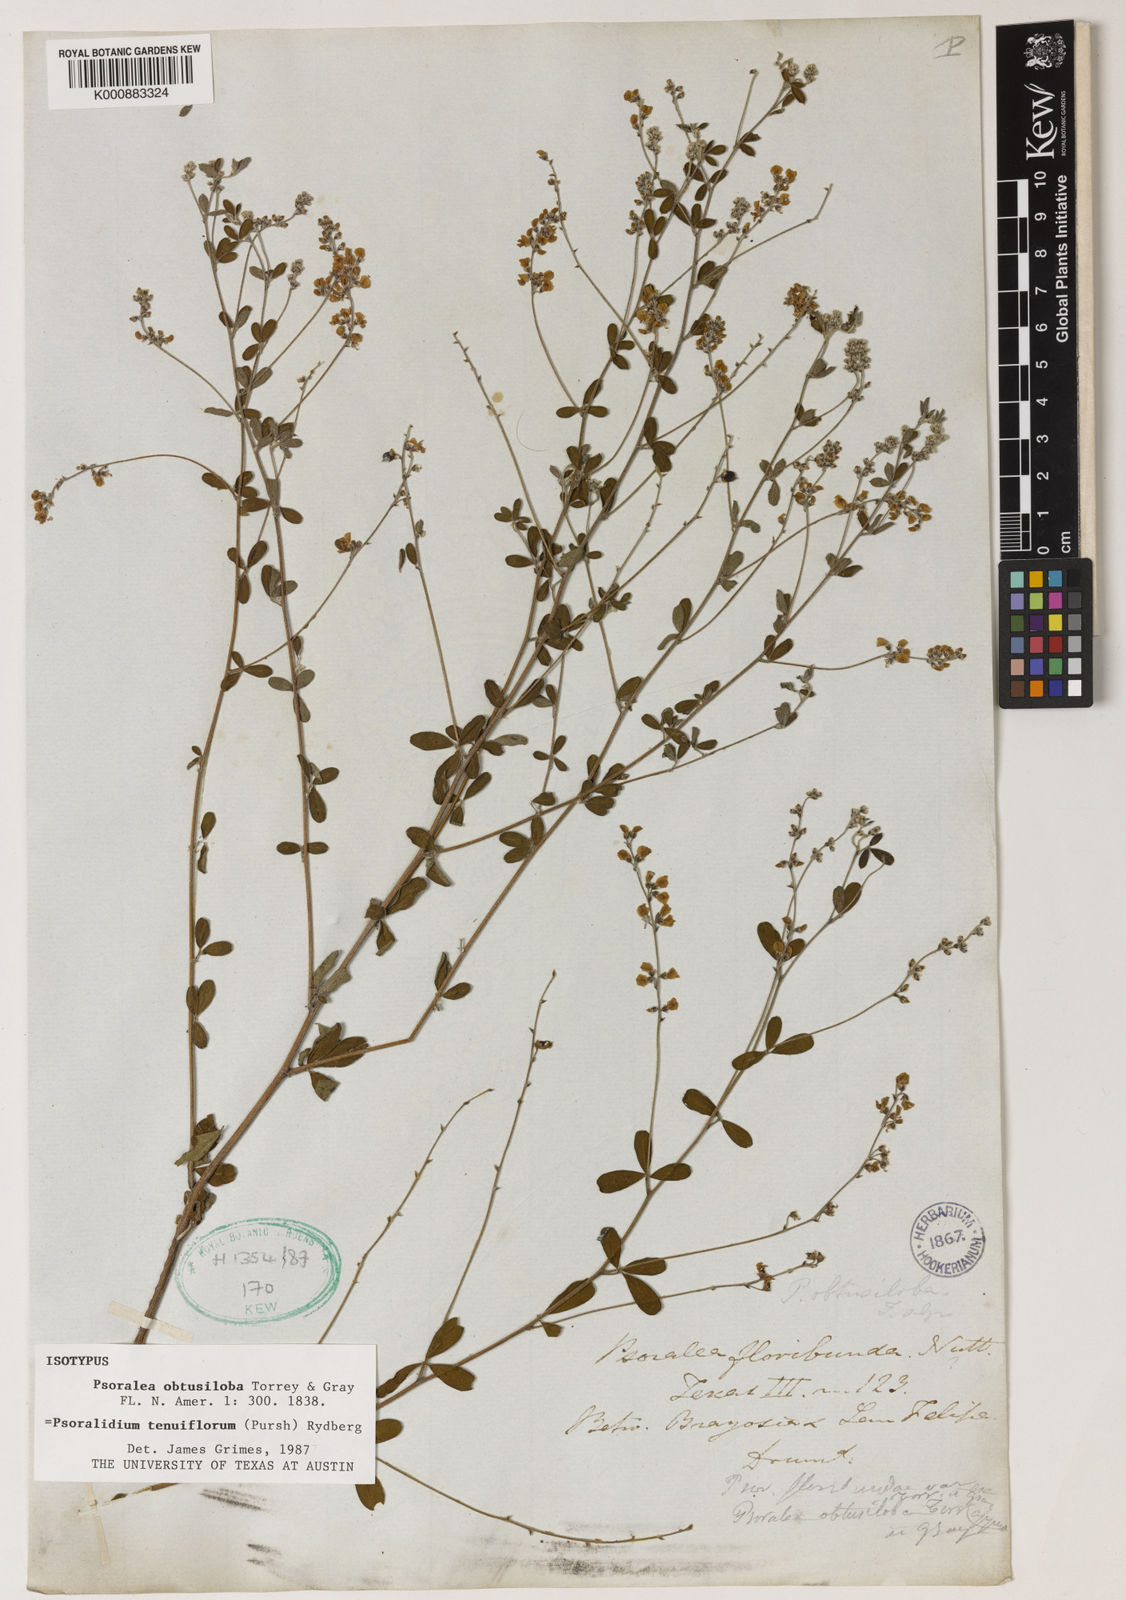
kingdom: Plantae
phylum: Tracheophyta
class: Magnoliopsida
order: Fabales
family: Fabaceae
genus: Pediomelum
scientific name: Pediomelum tenuiflorum
